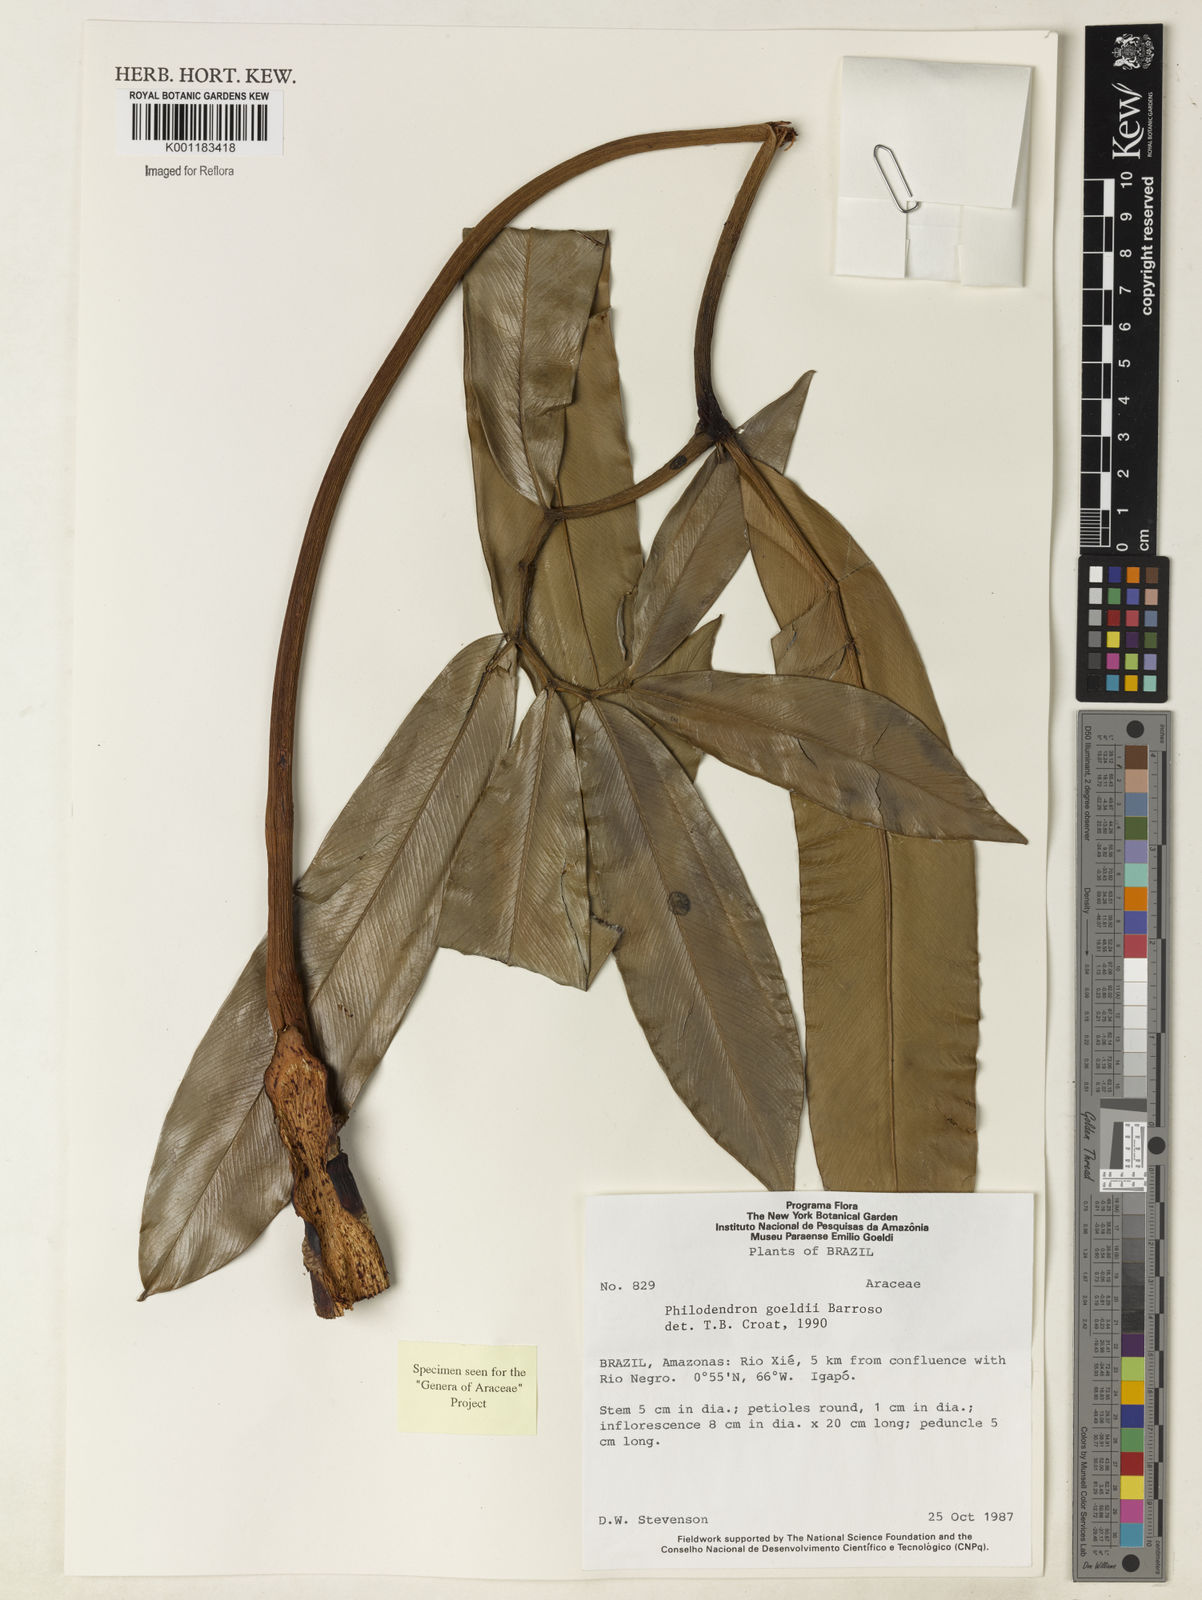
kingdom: Plantae
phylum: Tracheophyta
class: Liliopsida
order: Alismatales
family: Araceae
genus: Thaumatophyllum
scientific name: Thaumatophyllum spruceanum
